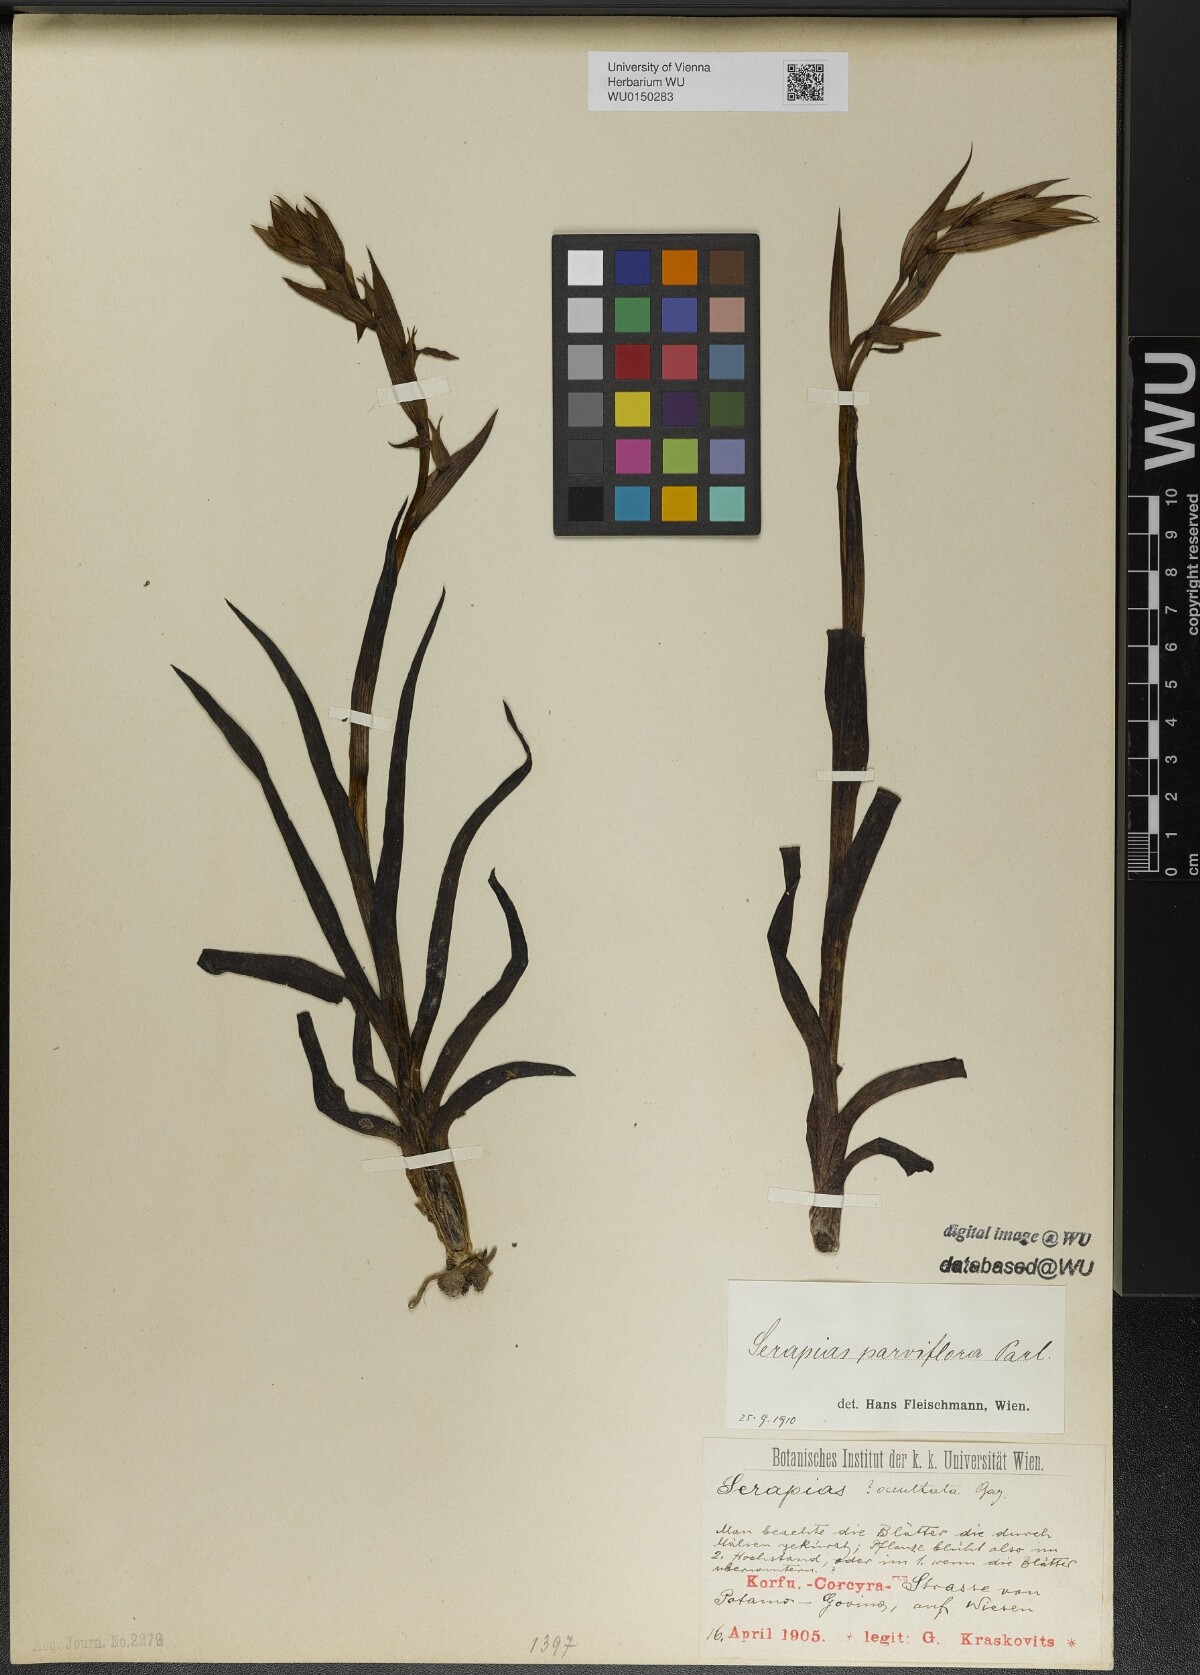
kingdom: Plantae
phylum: Tracheophyta
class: Liliopsida
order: Asparagales
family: Orchidaceae
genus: Serapias
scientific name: Serapias parviflora
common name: Small-flowered tongue-orchid
